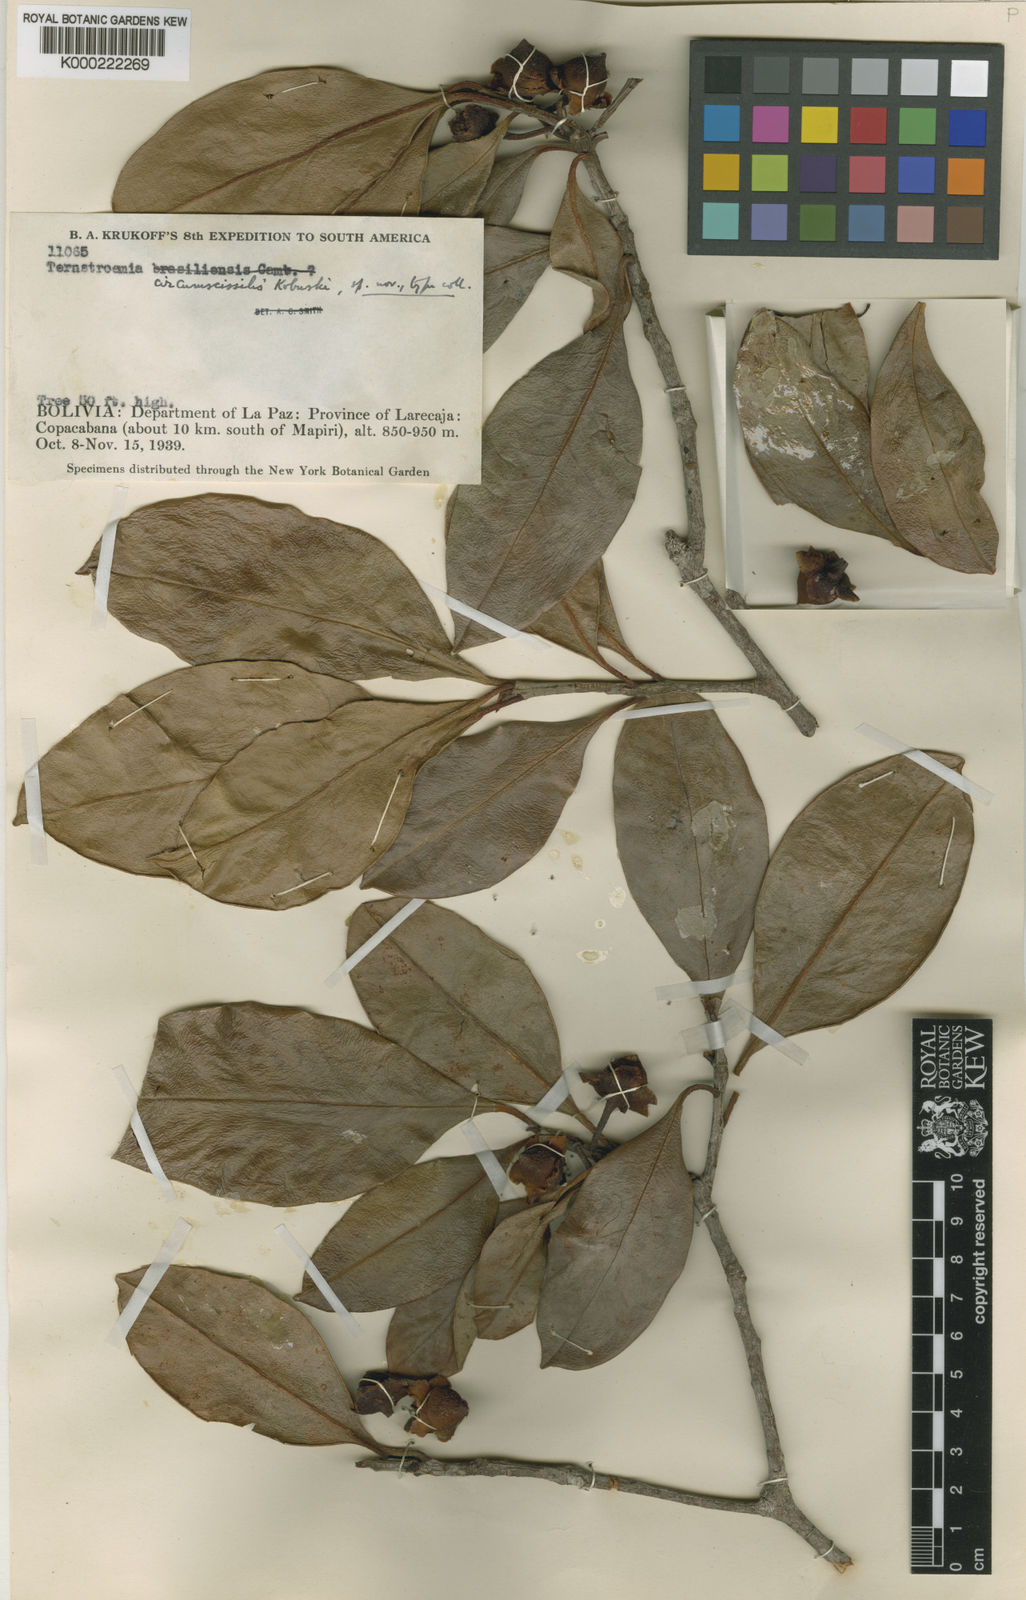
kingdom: Plantae
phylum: Tracheophyta
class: Magnoliopsida
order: Ericales
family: Pentaphylacaceae
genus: Ternstroemia
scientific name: Ternstroemia circumscissilis
